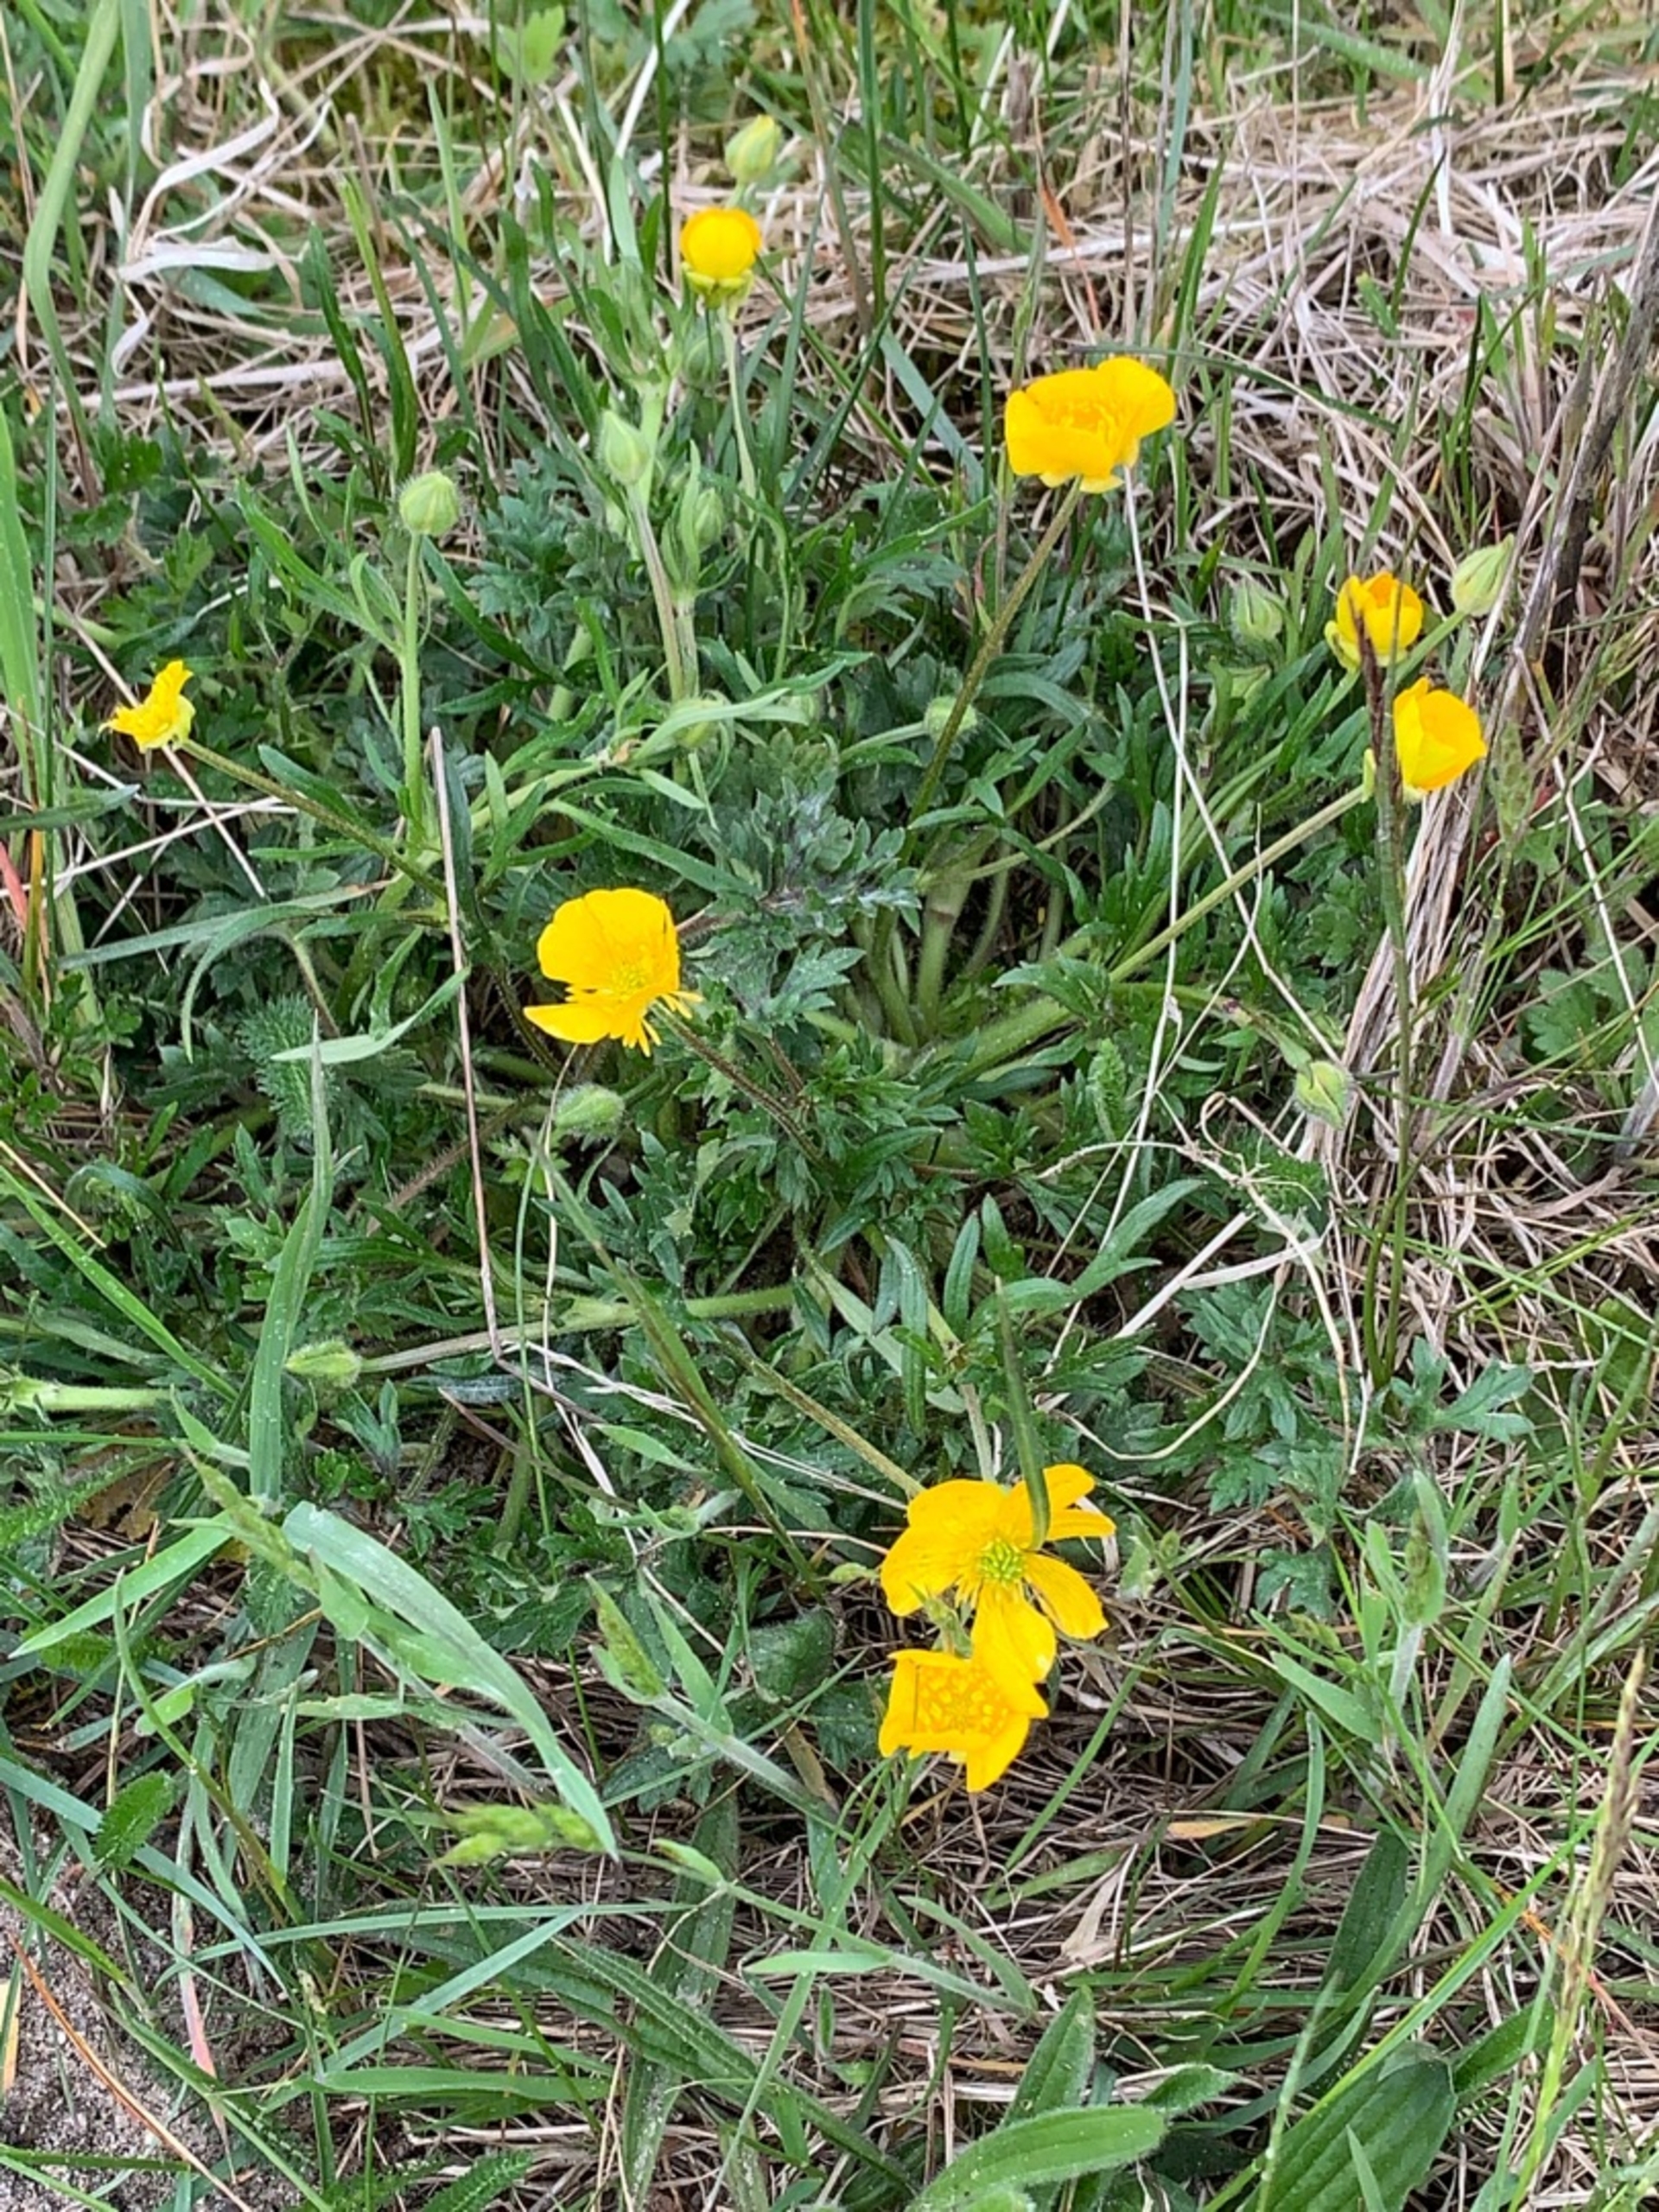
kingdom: Plantae
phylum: Tracheophyta
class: Magnoliopsida
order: Ranunculales
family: Ranunculaceae
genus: Ranunculus
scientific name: Ranunculus bulbosus
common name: Knold-ranunkel
